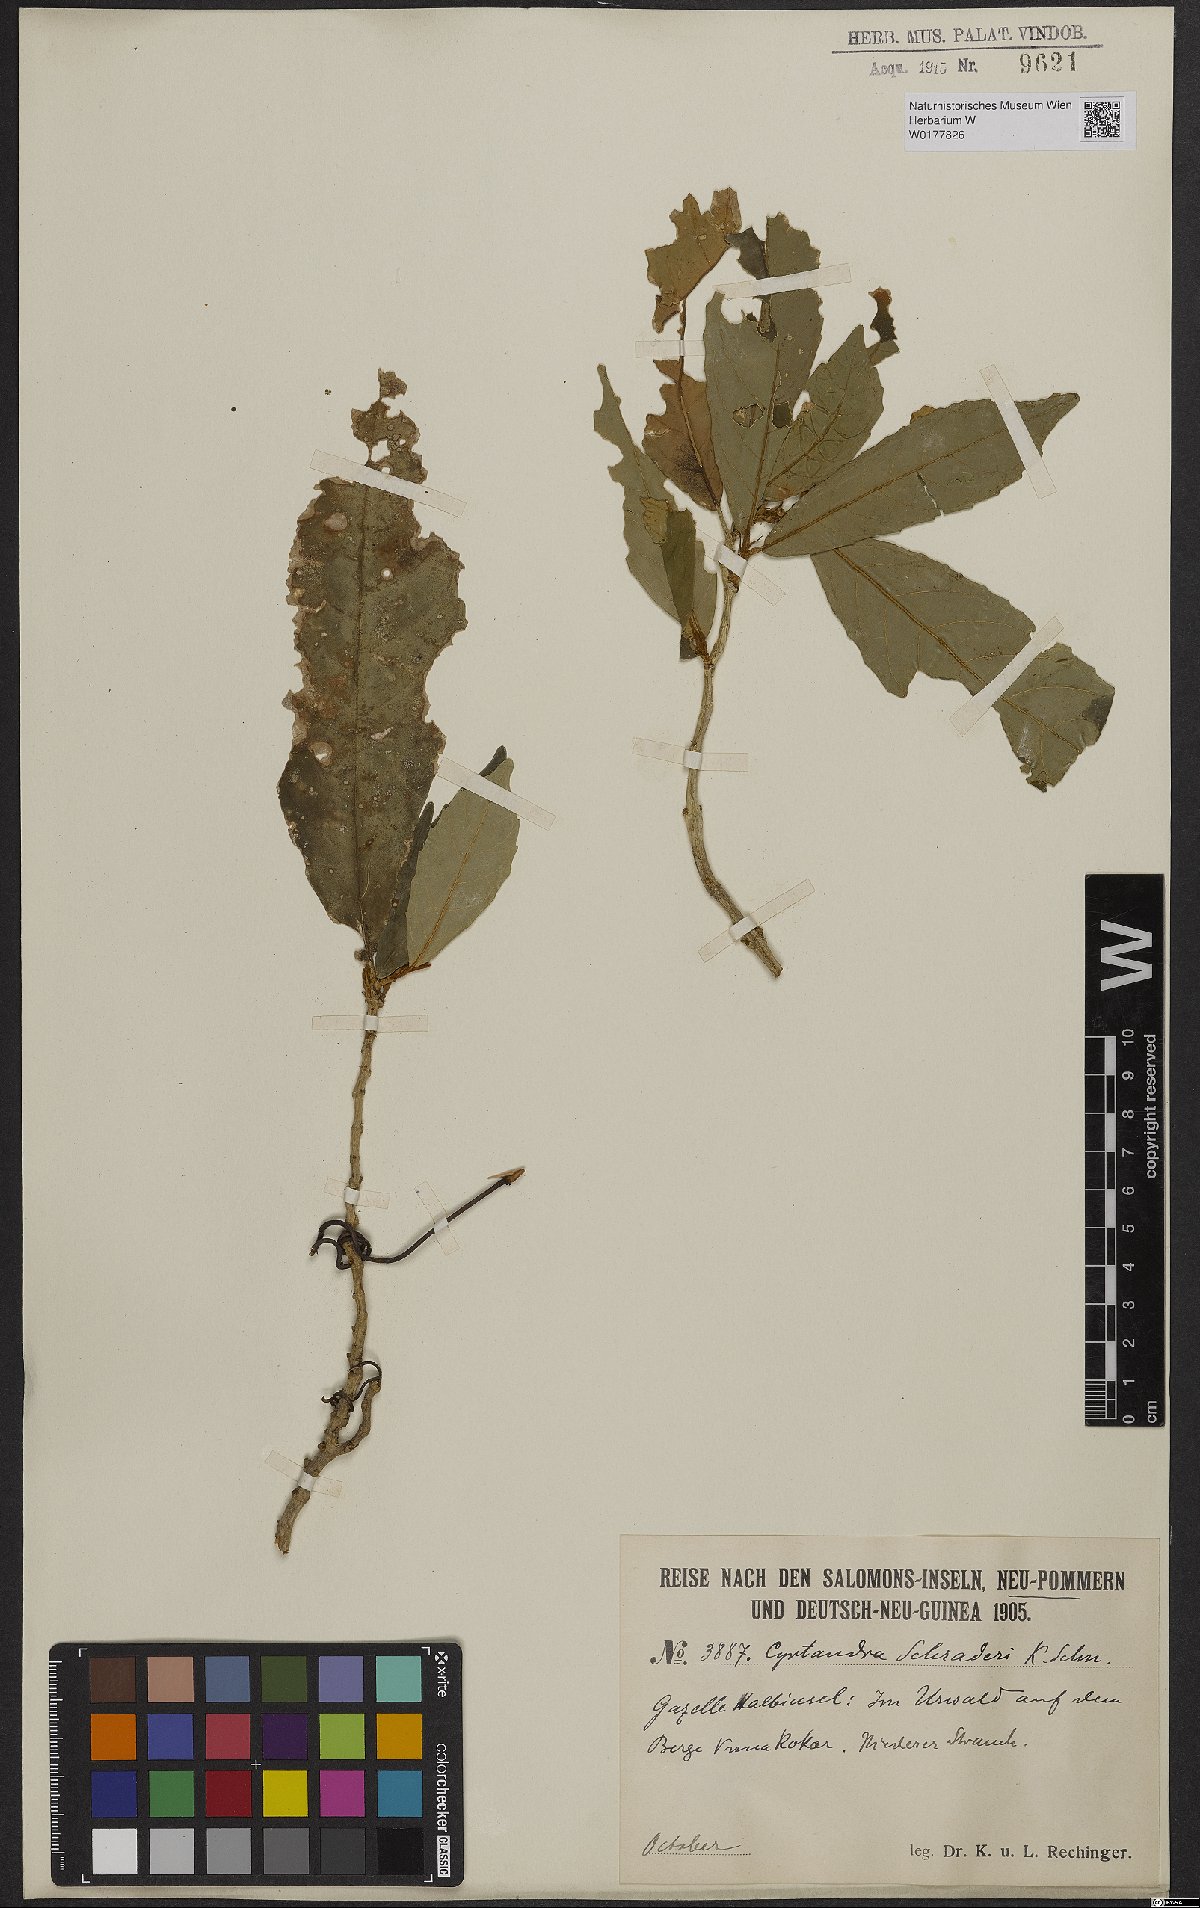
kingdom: Plantae
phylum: Tracheophyta
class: Magnoliopsida
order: Lamiales
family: Gesneriaceae
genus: Cyrtandra
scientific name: Cyrtandra
